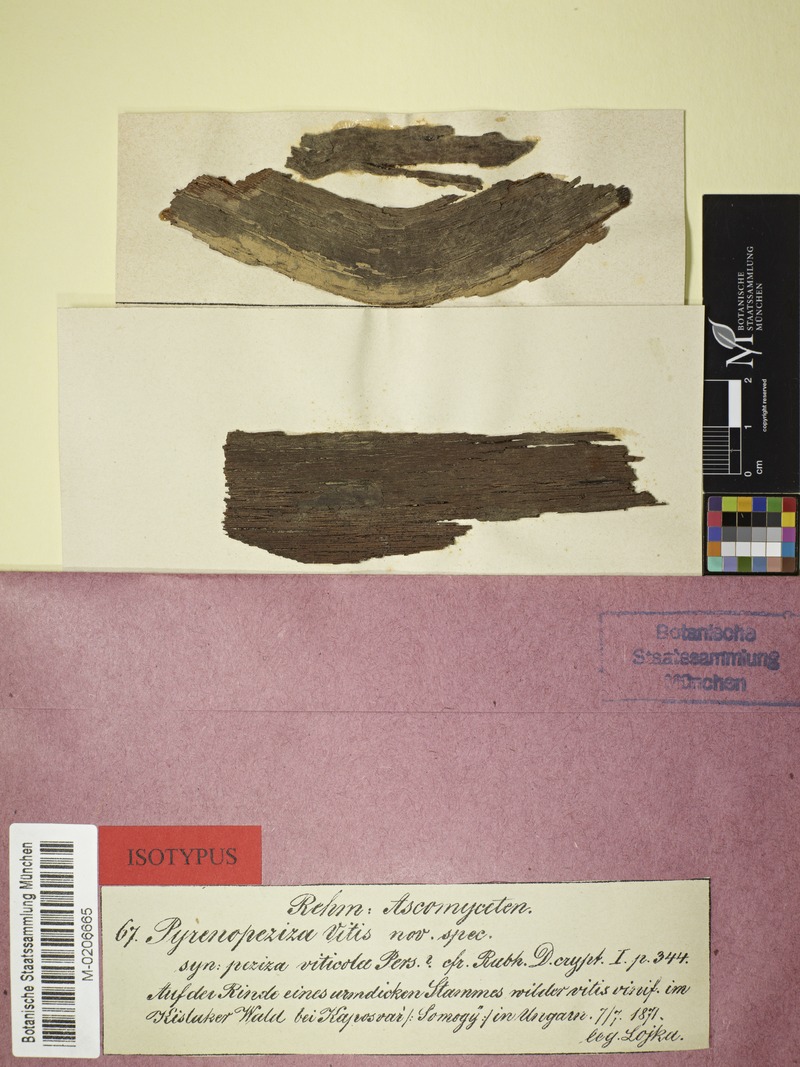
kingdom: Fungi
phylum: Ascomycota
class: Leotiomycetes
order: Helotiales
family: Ploettnerulaceae
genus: Pyrenopeziza
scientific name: Pyrenopeziza
